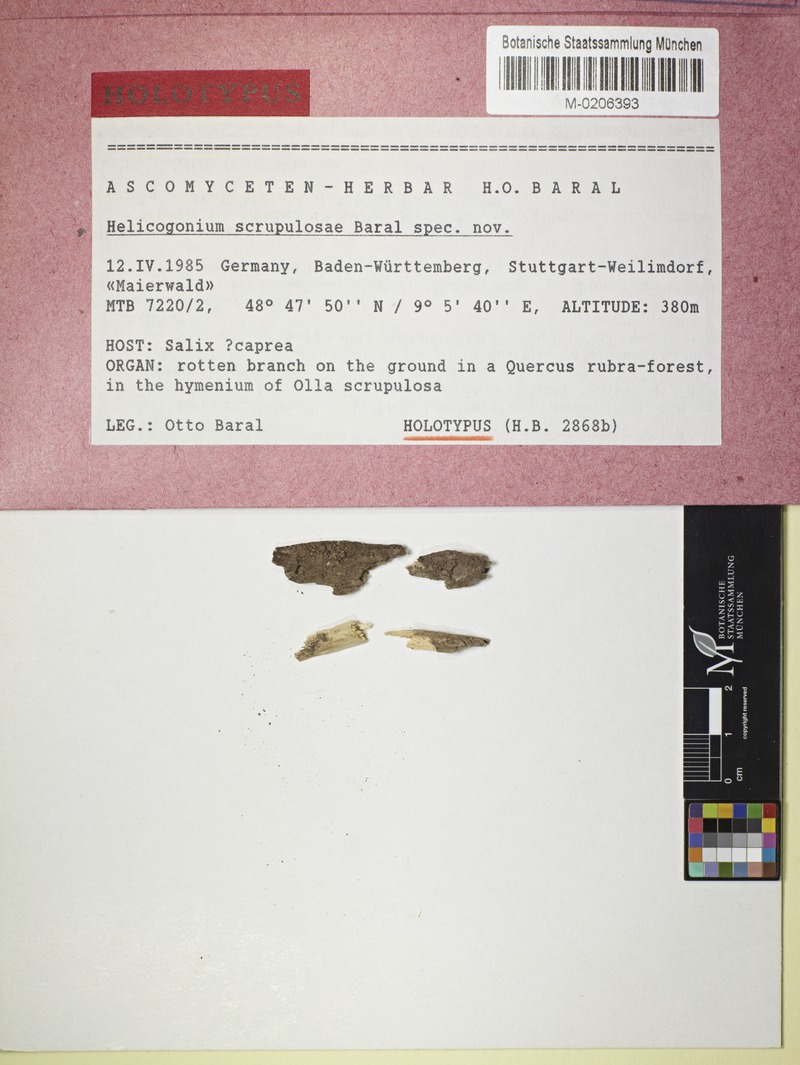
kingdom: Fungi
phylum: Ascomycota
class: Leotiomycetes
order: Phacidiales
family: Helicogoniaceae
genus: Helicogonium
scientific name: Helicogonium scrupulosae
